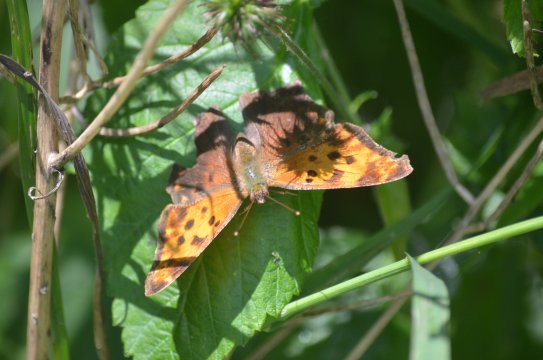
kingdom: Animalia
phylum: Arthropoda
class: Insecta
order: Lepidoptera
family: Nymphalidae
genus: Polygonia
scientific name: Polygonia comma
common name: Eastern Comma
